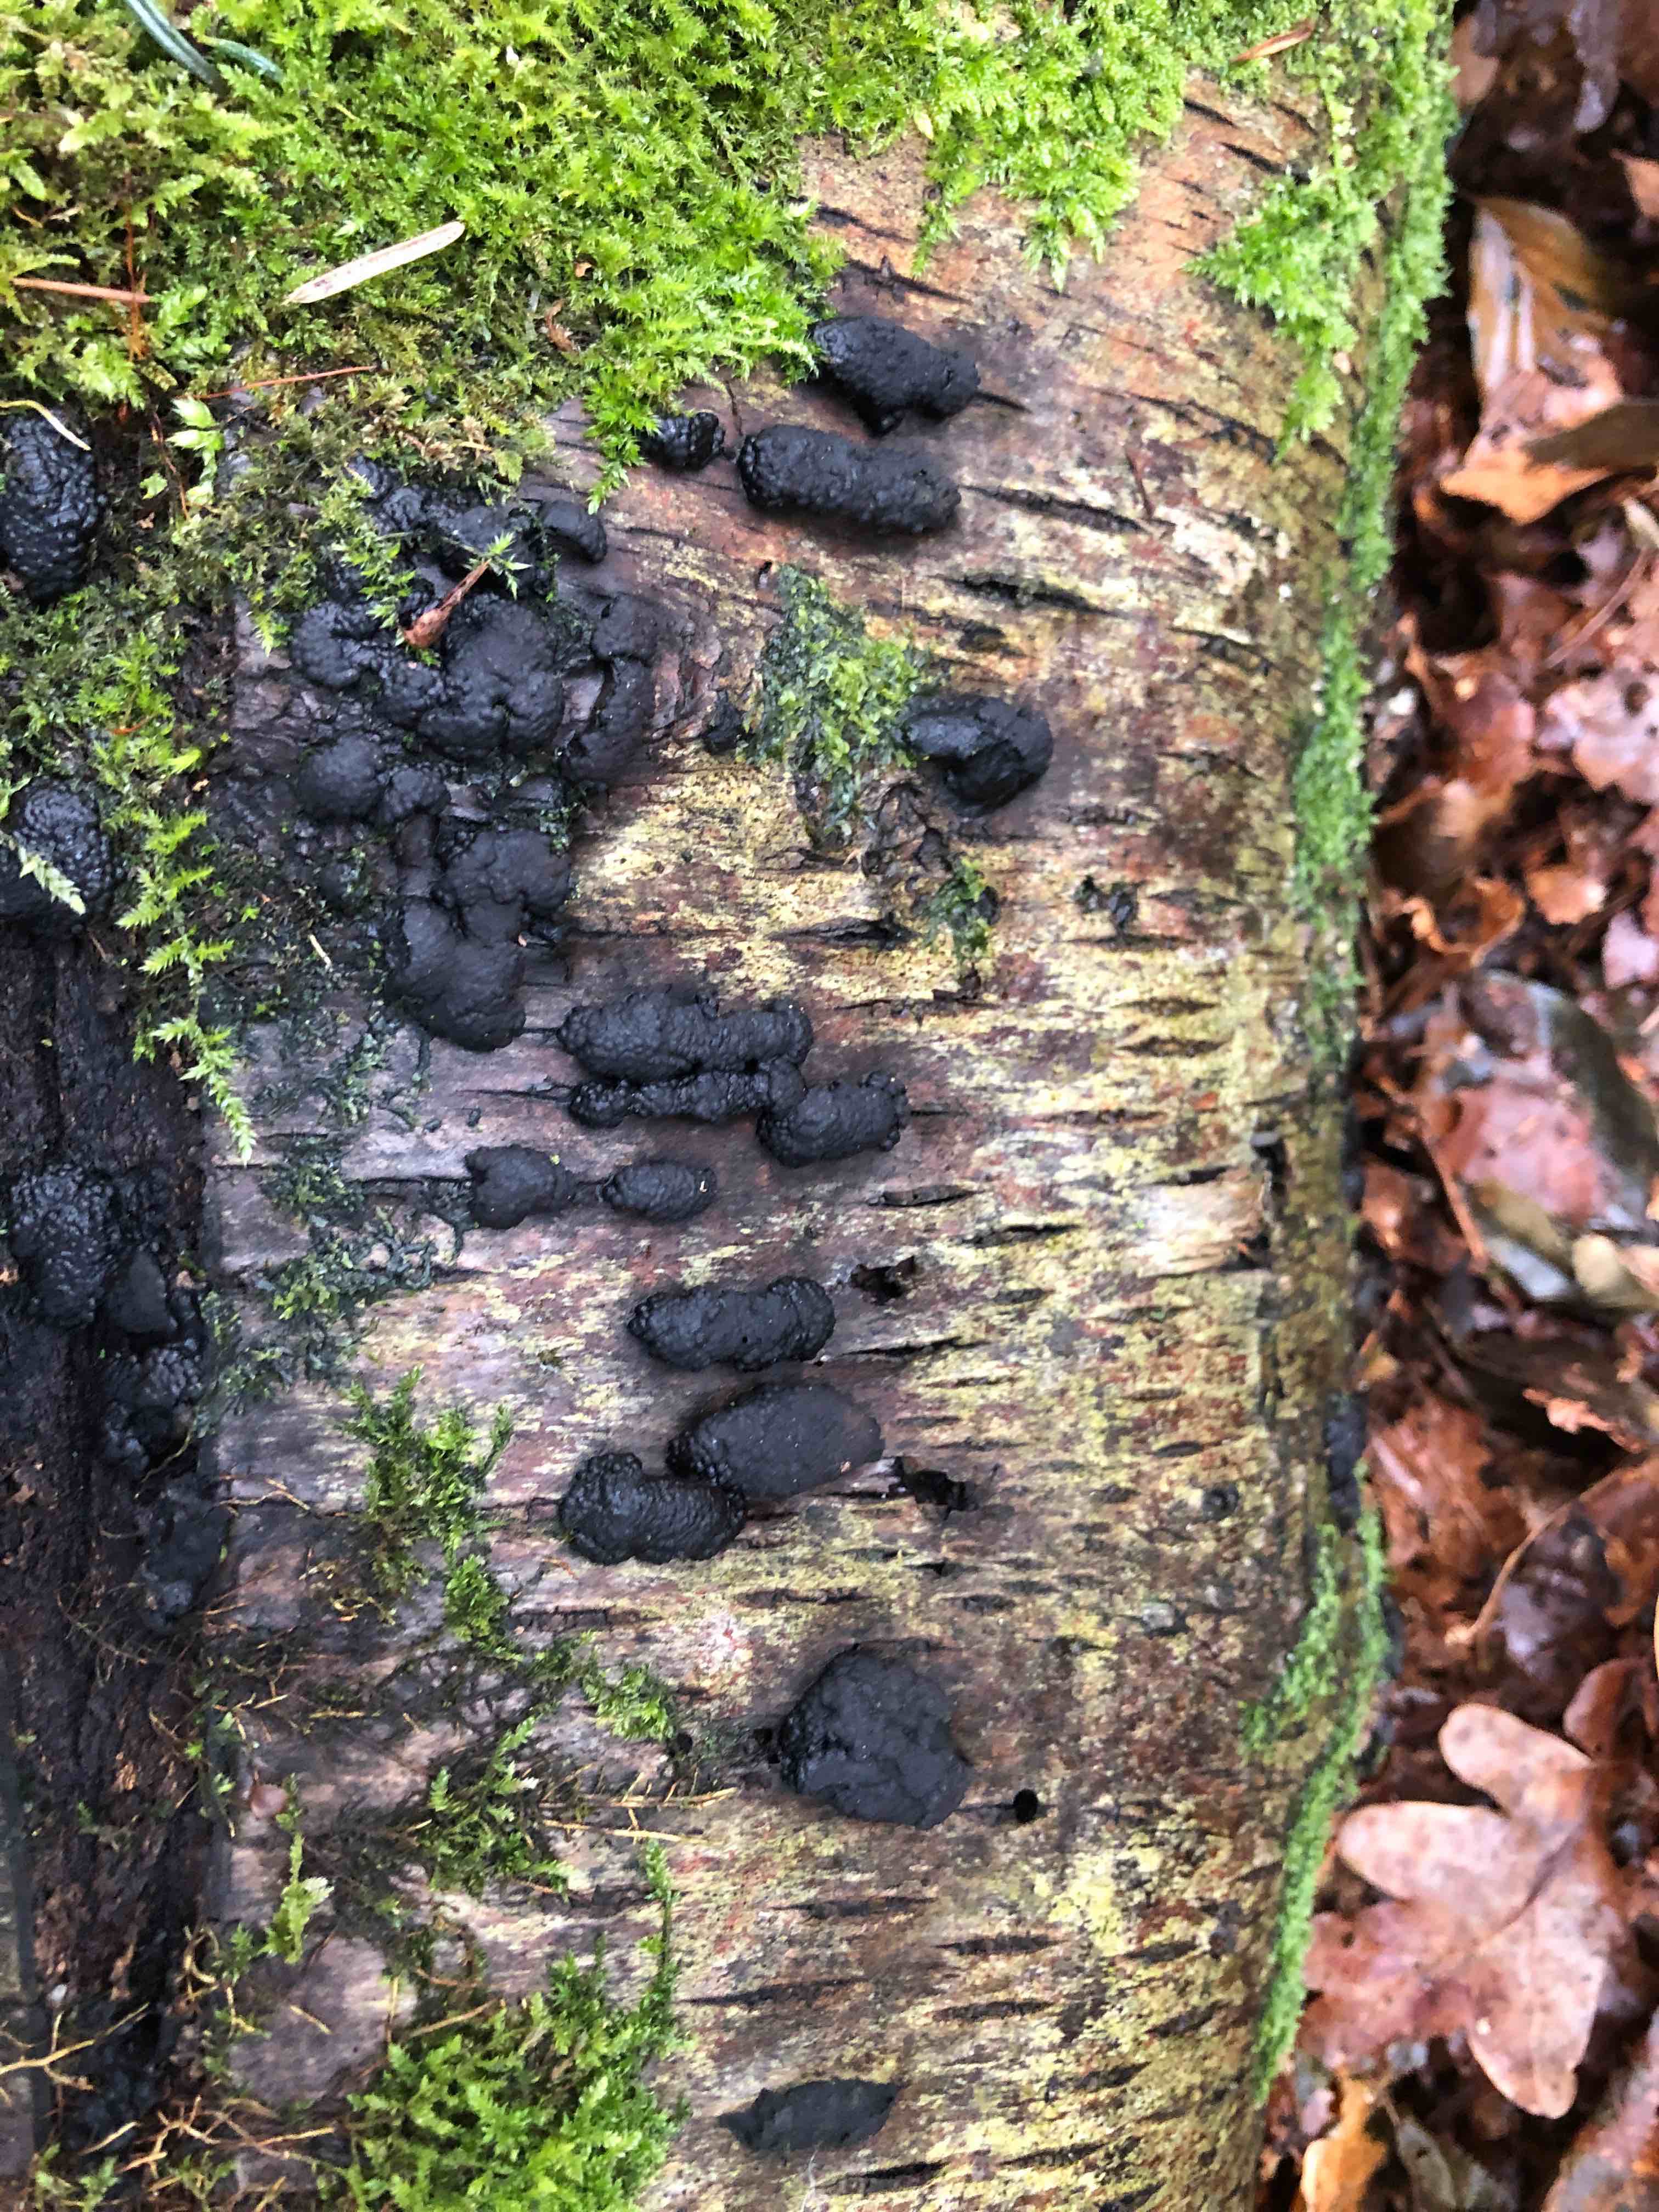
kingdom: Fungi
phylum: Ascomycota
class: Sordariomycetes
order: Xylariales
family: Hypoxylaceae
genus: Jackrogersella
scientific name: Jackrogersella multiformis
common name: foranderlig kulbær
